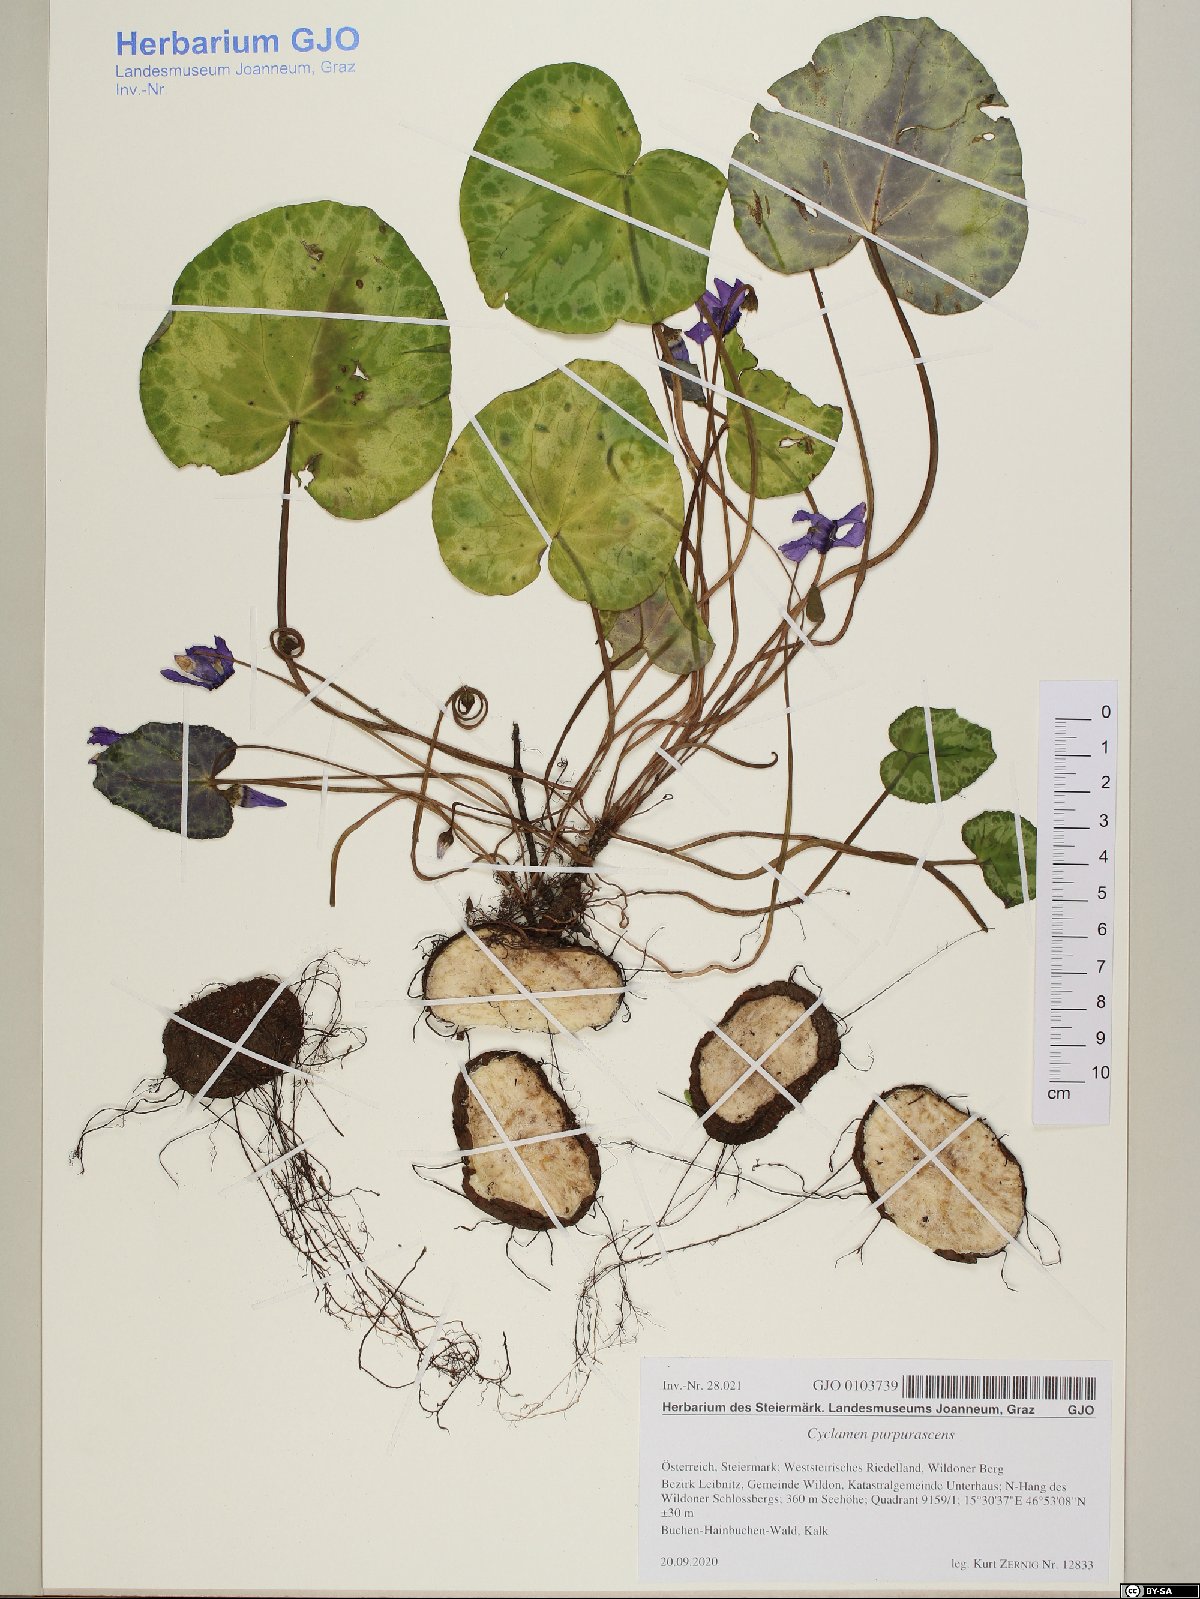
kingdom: Plantae
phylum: Tracheophyta
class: Magnoliopsida
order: Ericales
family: Primulaceae
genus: Cyclamen
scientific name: Cyclamen purpurascens
